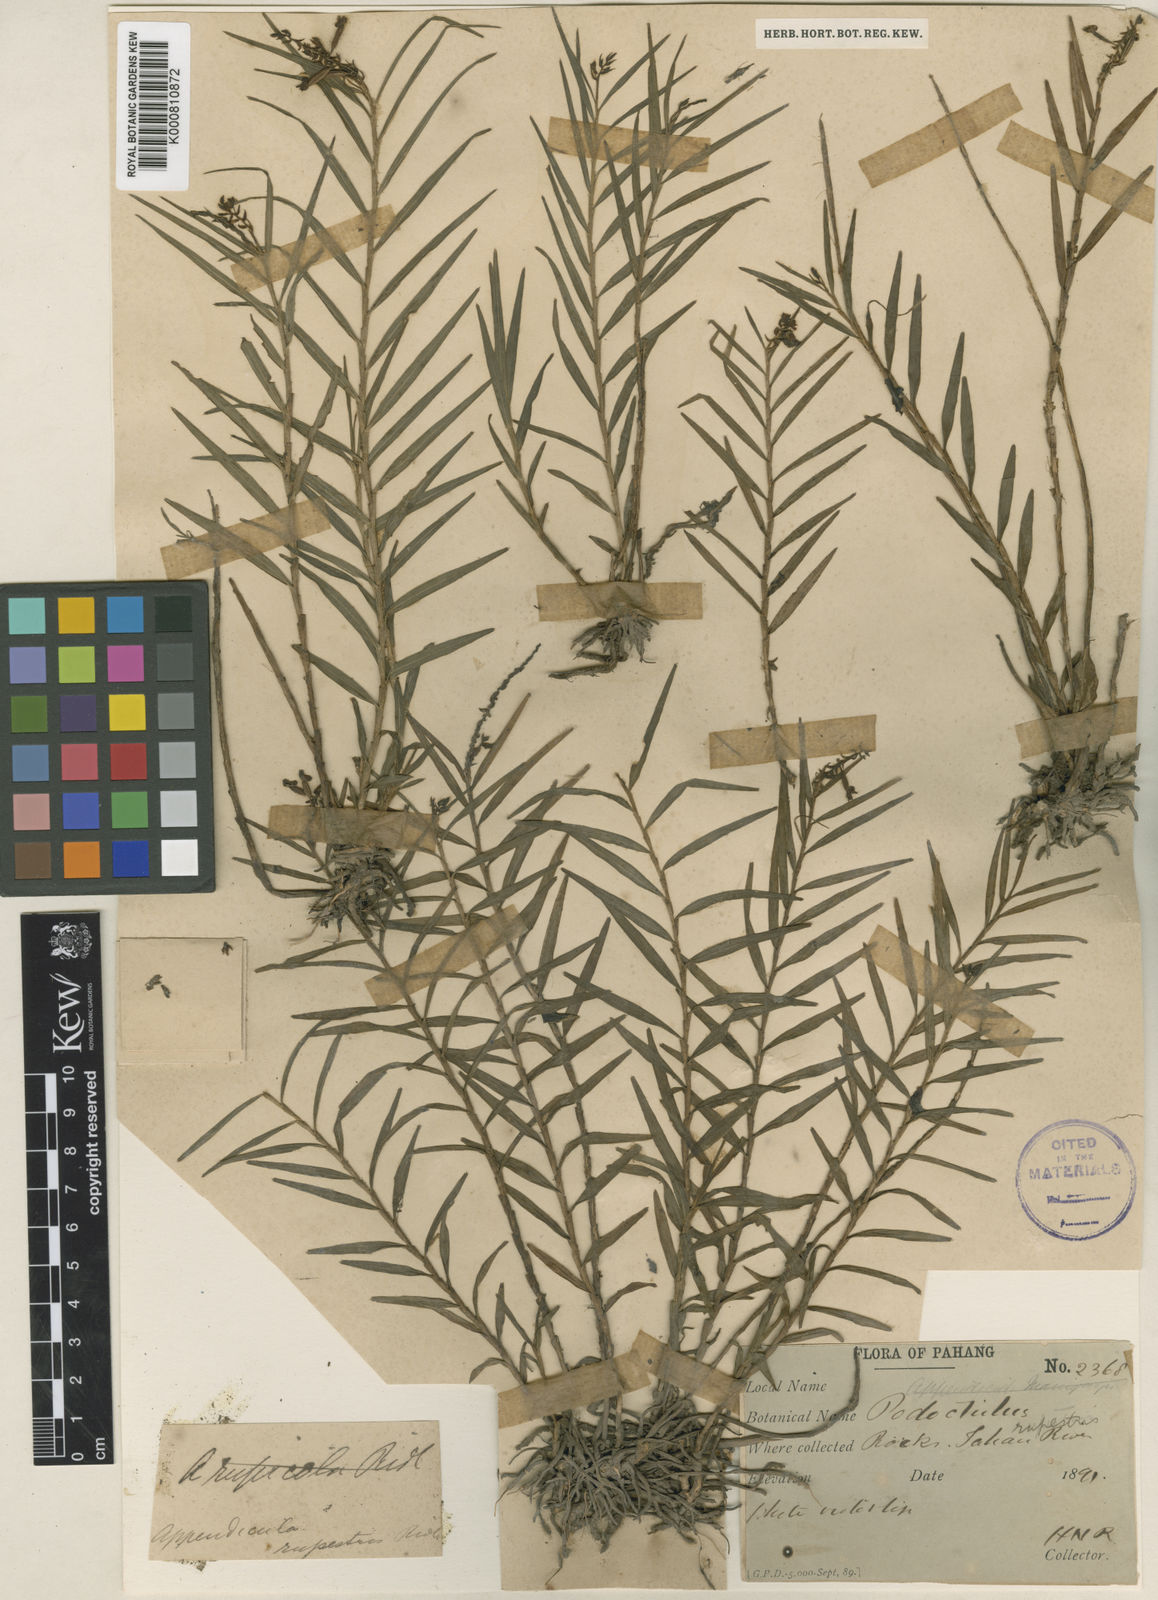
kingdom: Plantae
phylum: Tracheophyta
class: Liliopsida
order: Asparagales
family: Orchidaceae
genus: Appendicula
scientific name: Appendicula rupestris
